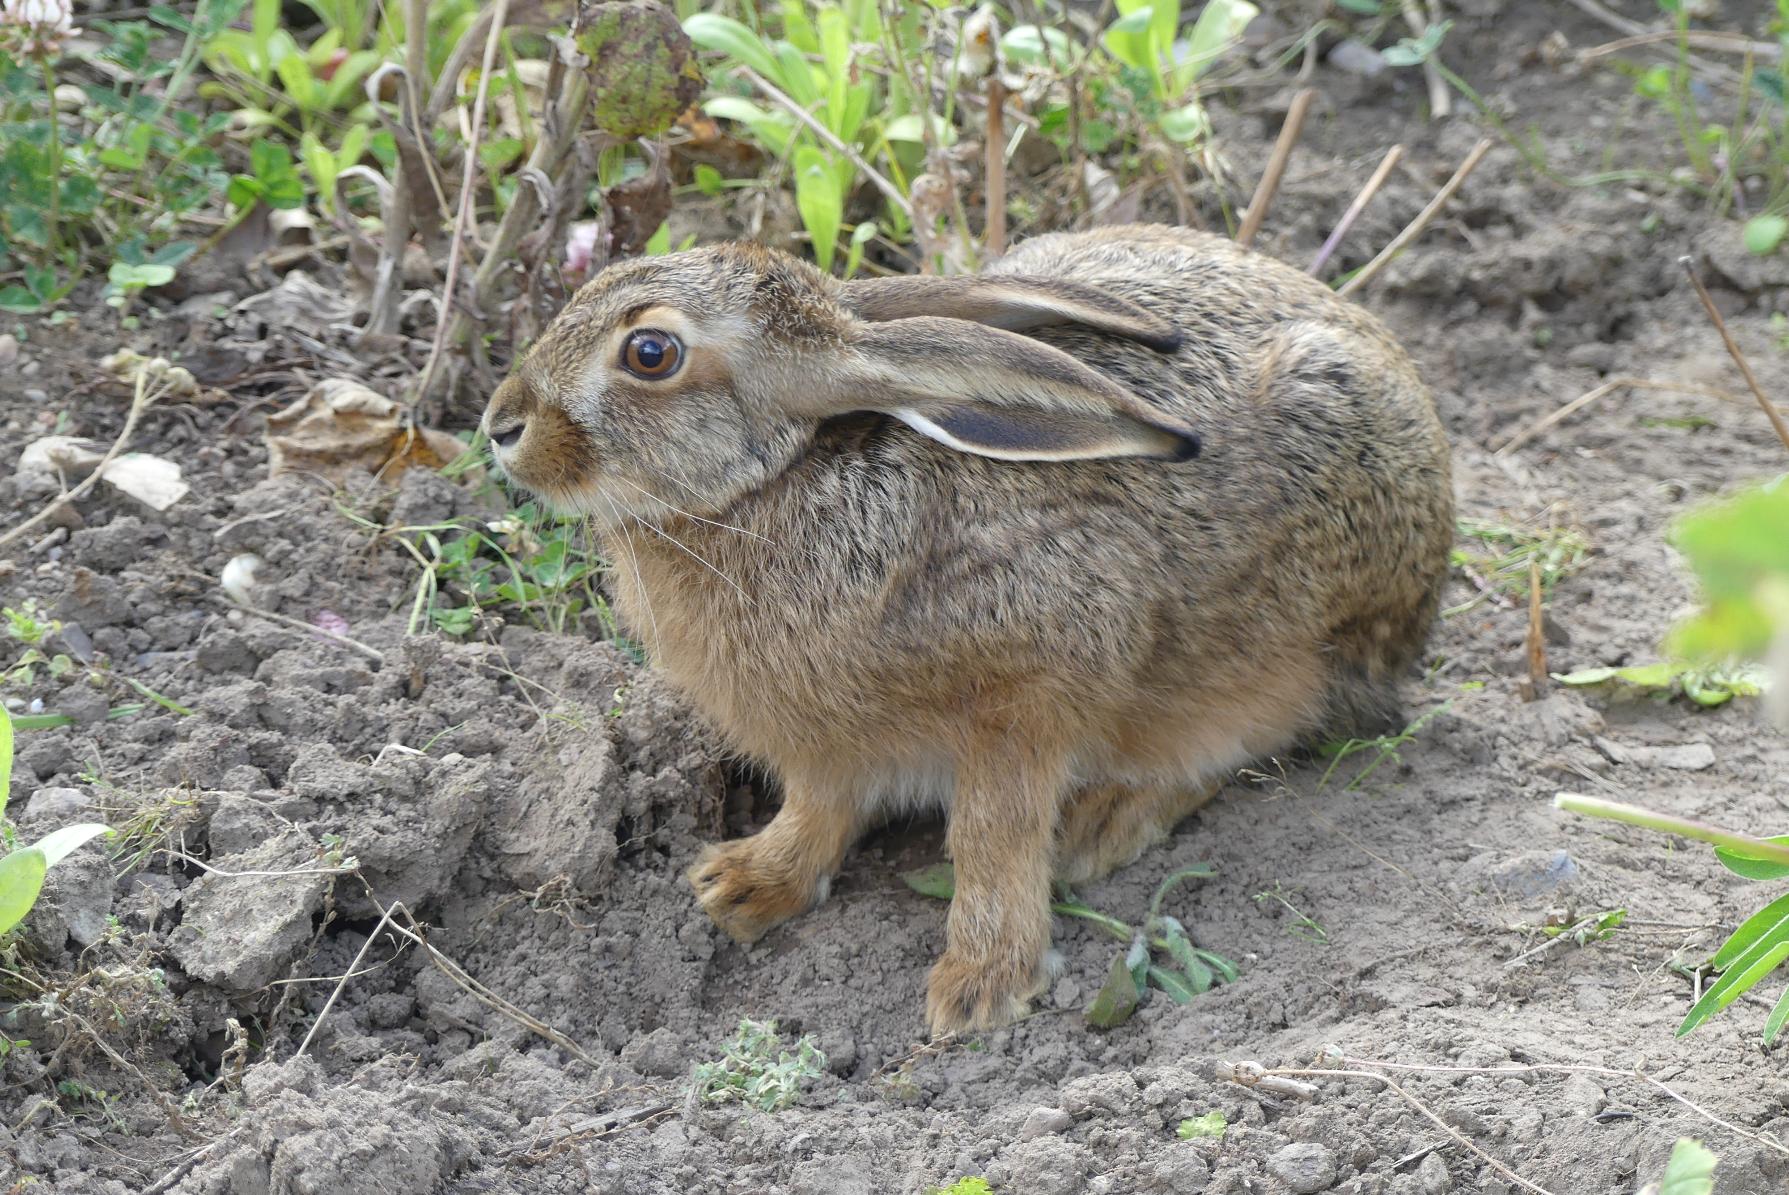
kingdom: Animalia
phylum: Chordata
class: Mammalia
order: Lagomorpha
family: Leporidae
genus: Lepus
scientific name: Lepus europaeus
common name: Hare
